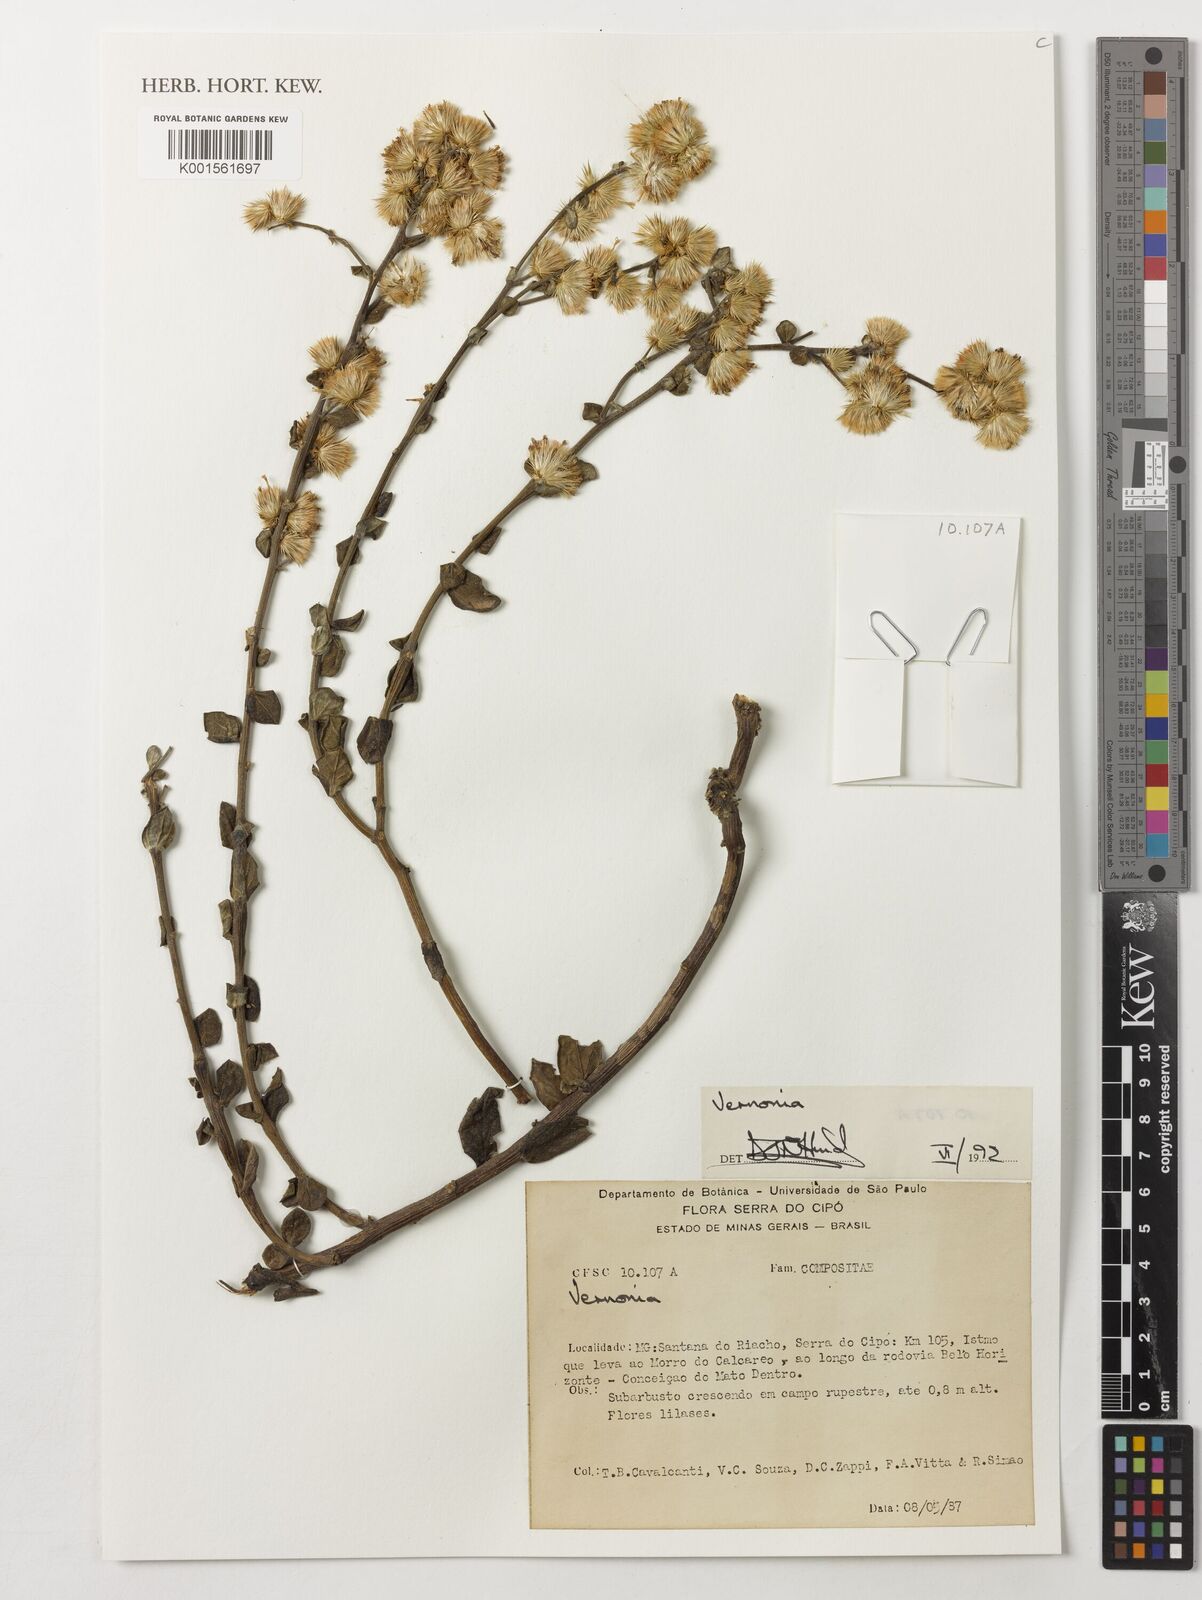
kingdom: Plantae
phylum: Tracheophyta
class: Magnoliopsida
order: Asterales
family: Asteraceae
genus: Vernonia
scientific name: Vernonia
